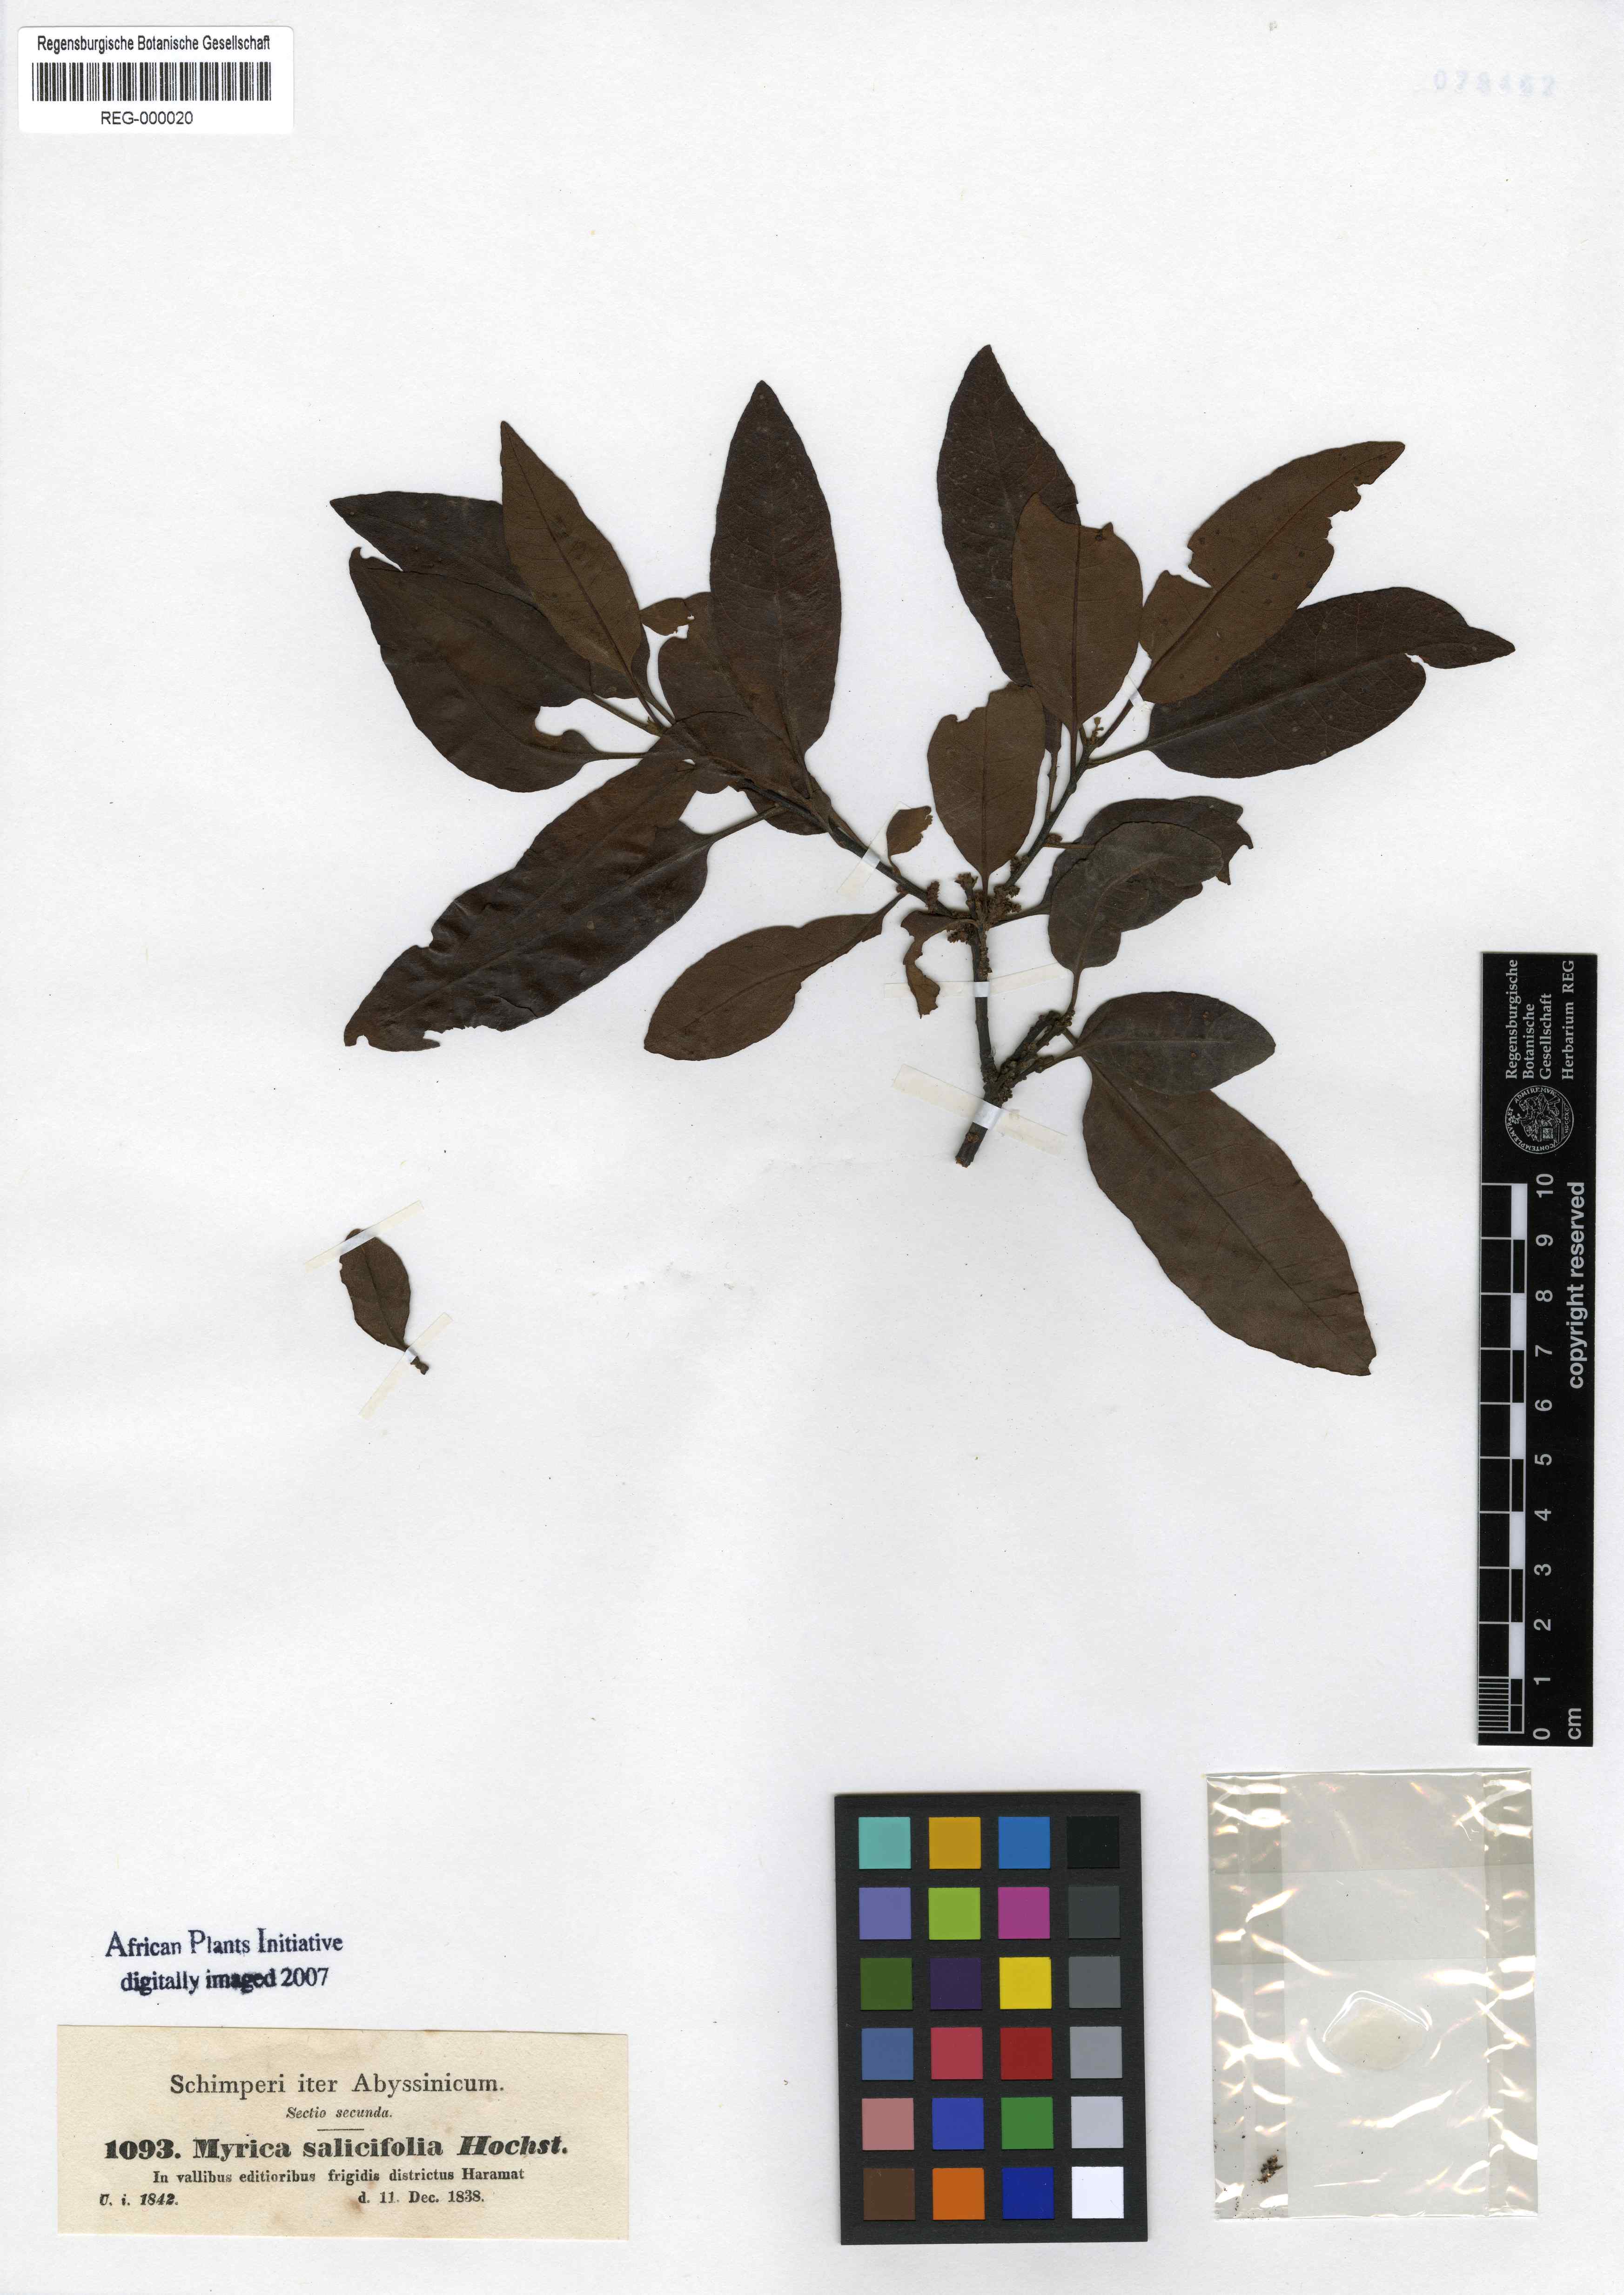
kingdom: Plantae
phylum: Tracheophyta
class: Magnoliopsida
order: Fagales
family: Myricaceae
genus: Morella
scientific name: Morella salicifolia
